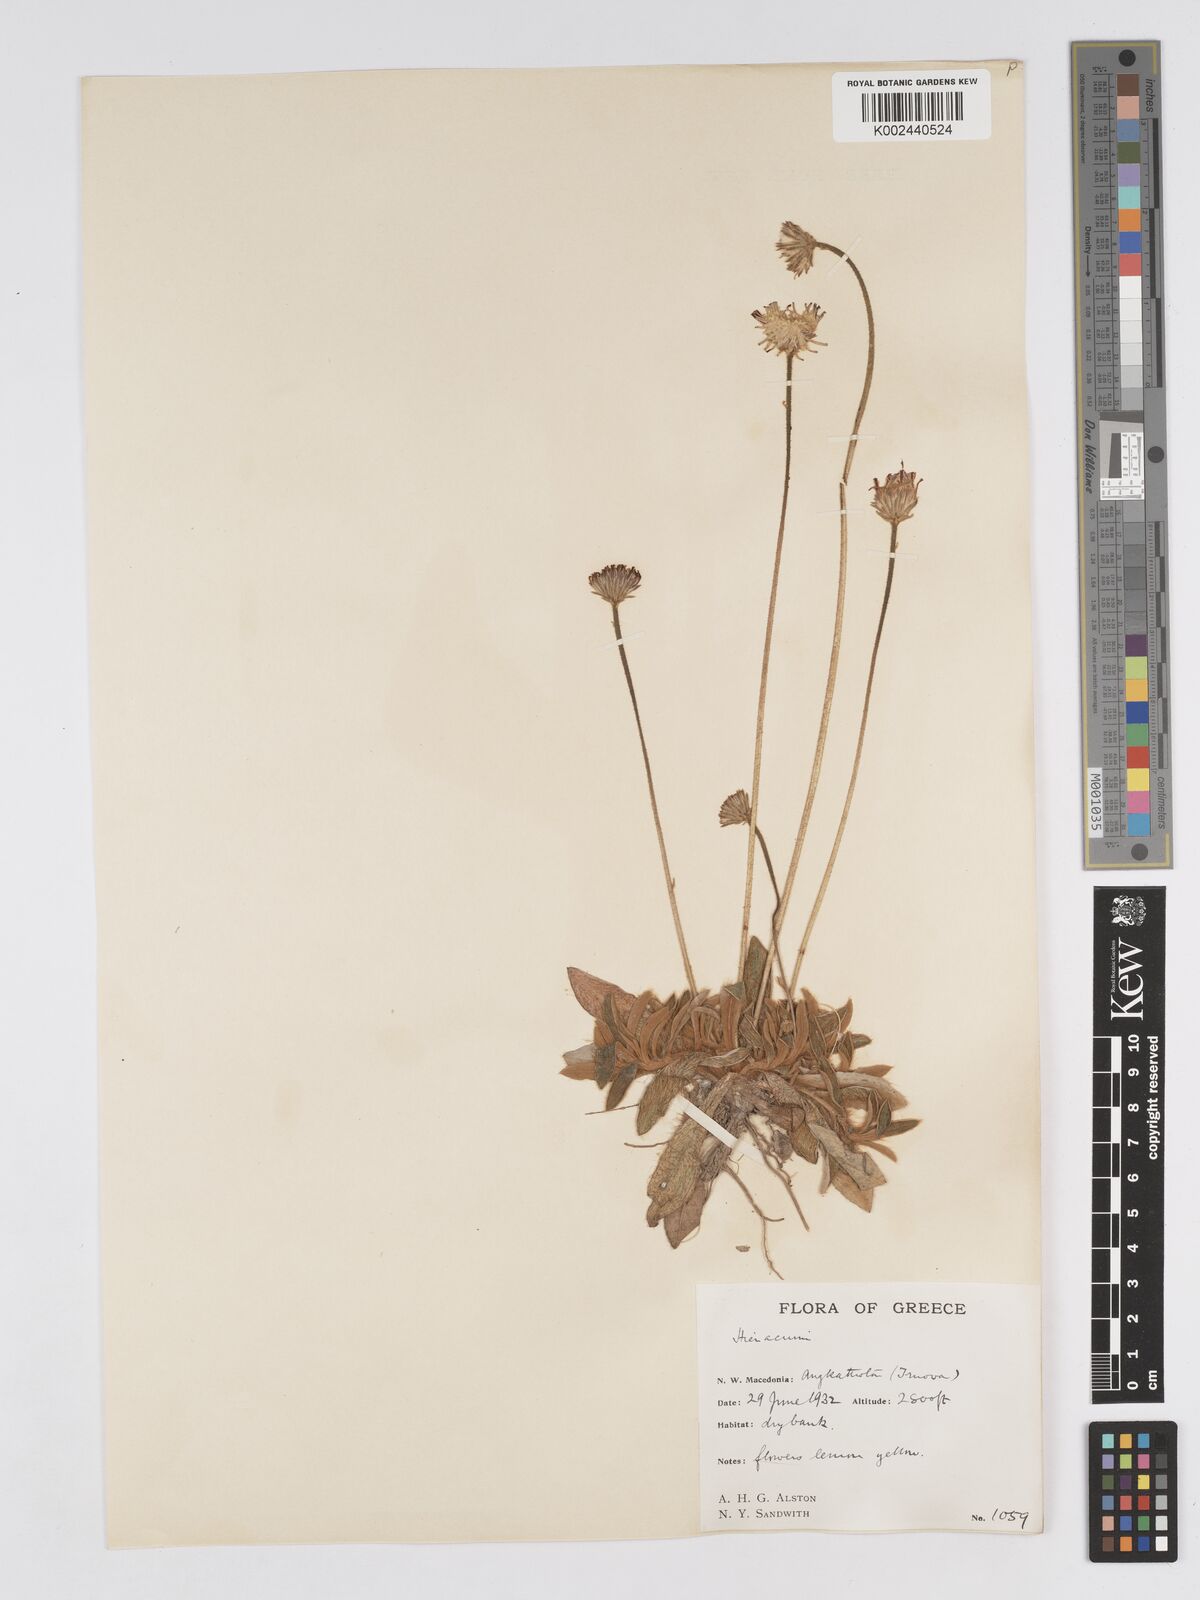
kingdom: Plantae
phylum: Tracheophyta
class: Magnoliopsida
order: Asterales
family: Asteraceae
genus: Pilosella
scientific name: Pilosella velutina
